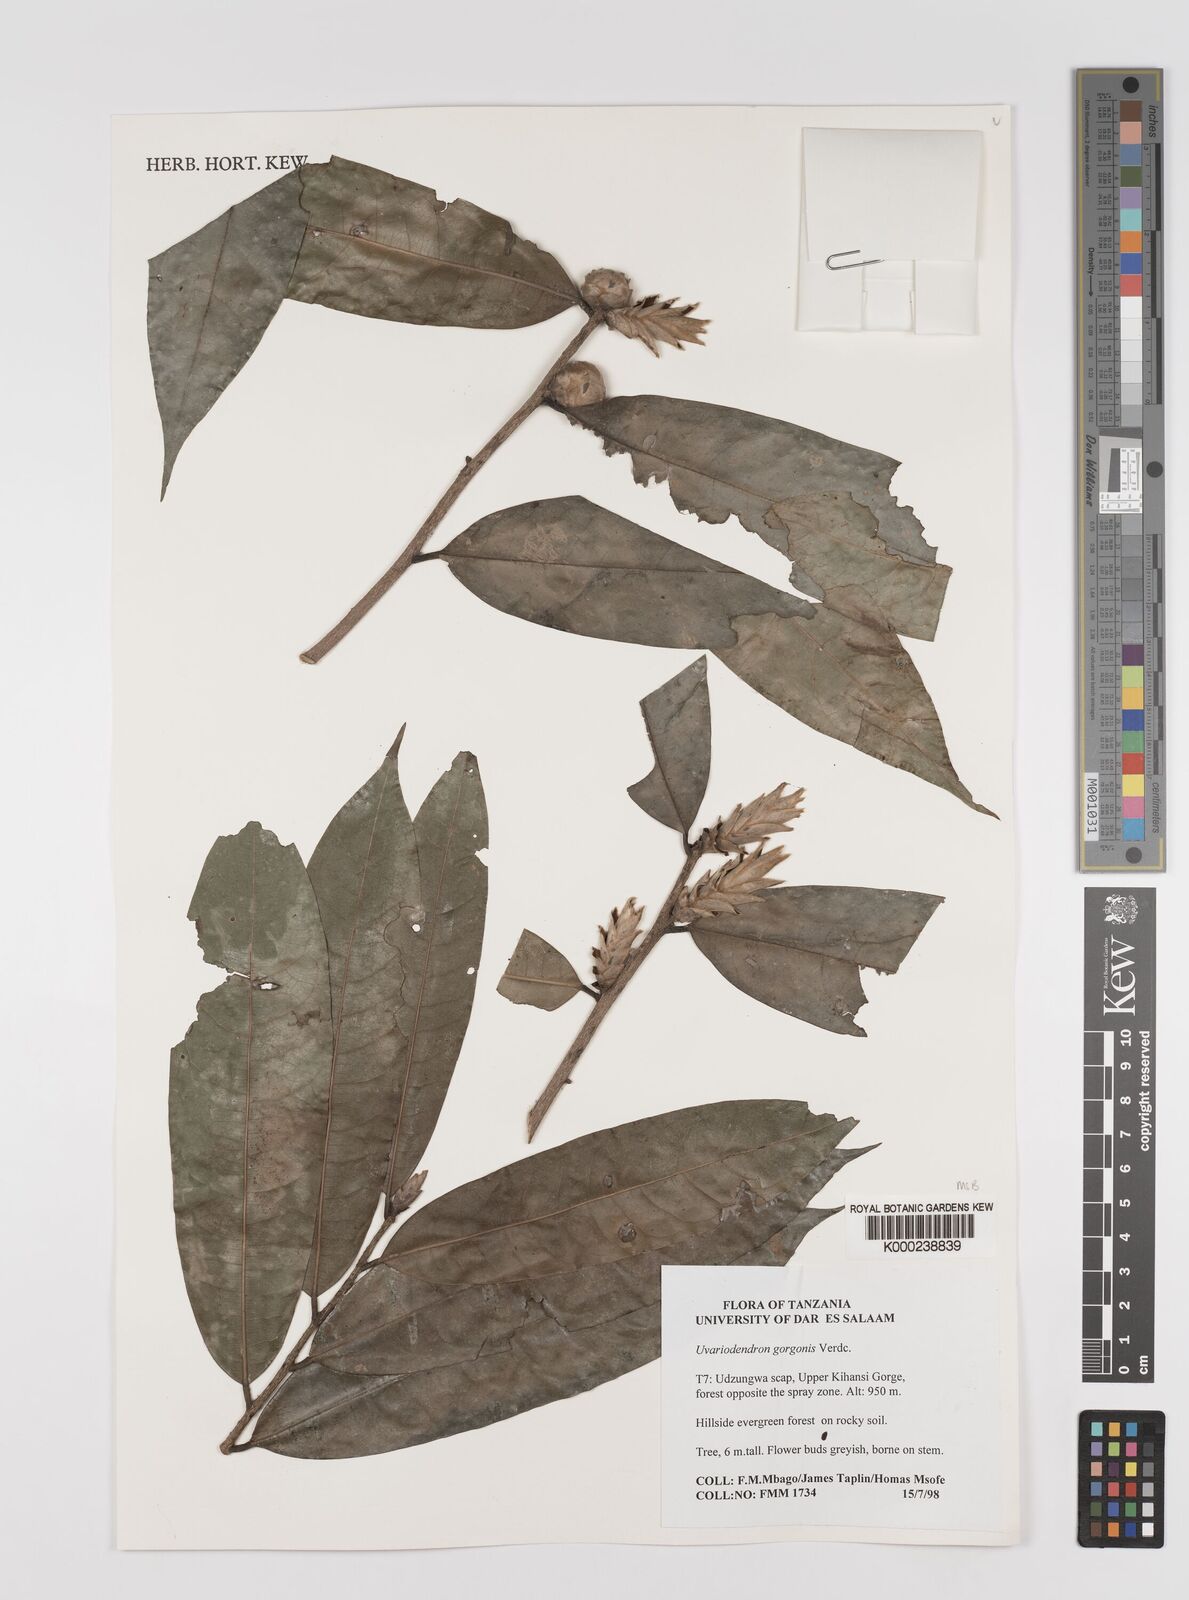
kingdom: Plantae
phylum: Tracheophyta
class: Magnoliopsida
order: Magnoliales
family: Annonaceae
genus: Uvariodendron
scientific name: Uvariodendron gorgonis
